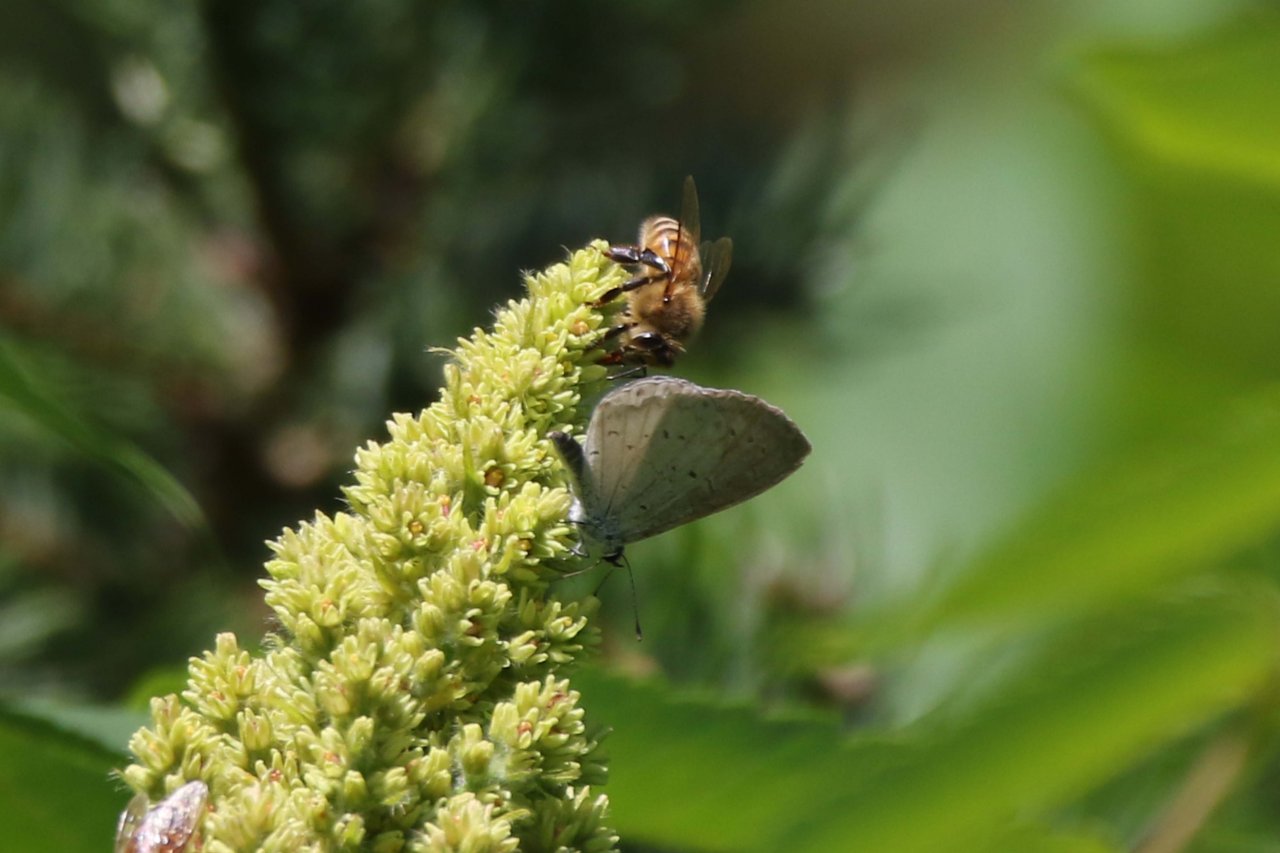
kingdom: Animalia
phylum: Arthropoda
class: Insecta
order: Lepidoptera
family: Lycaenidae
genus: Celastrina
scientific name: Celastrina
